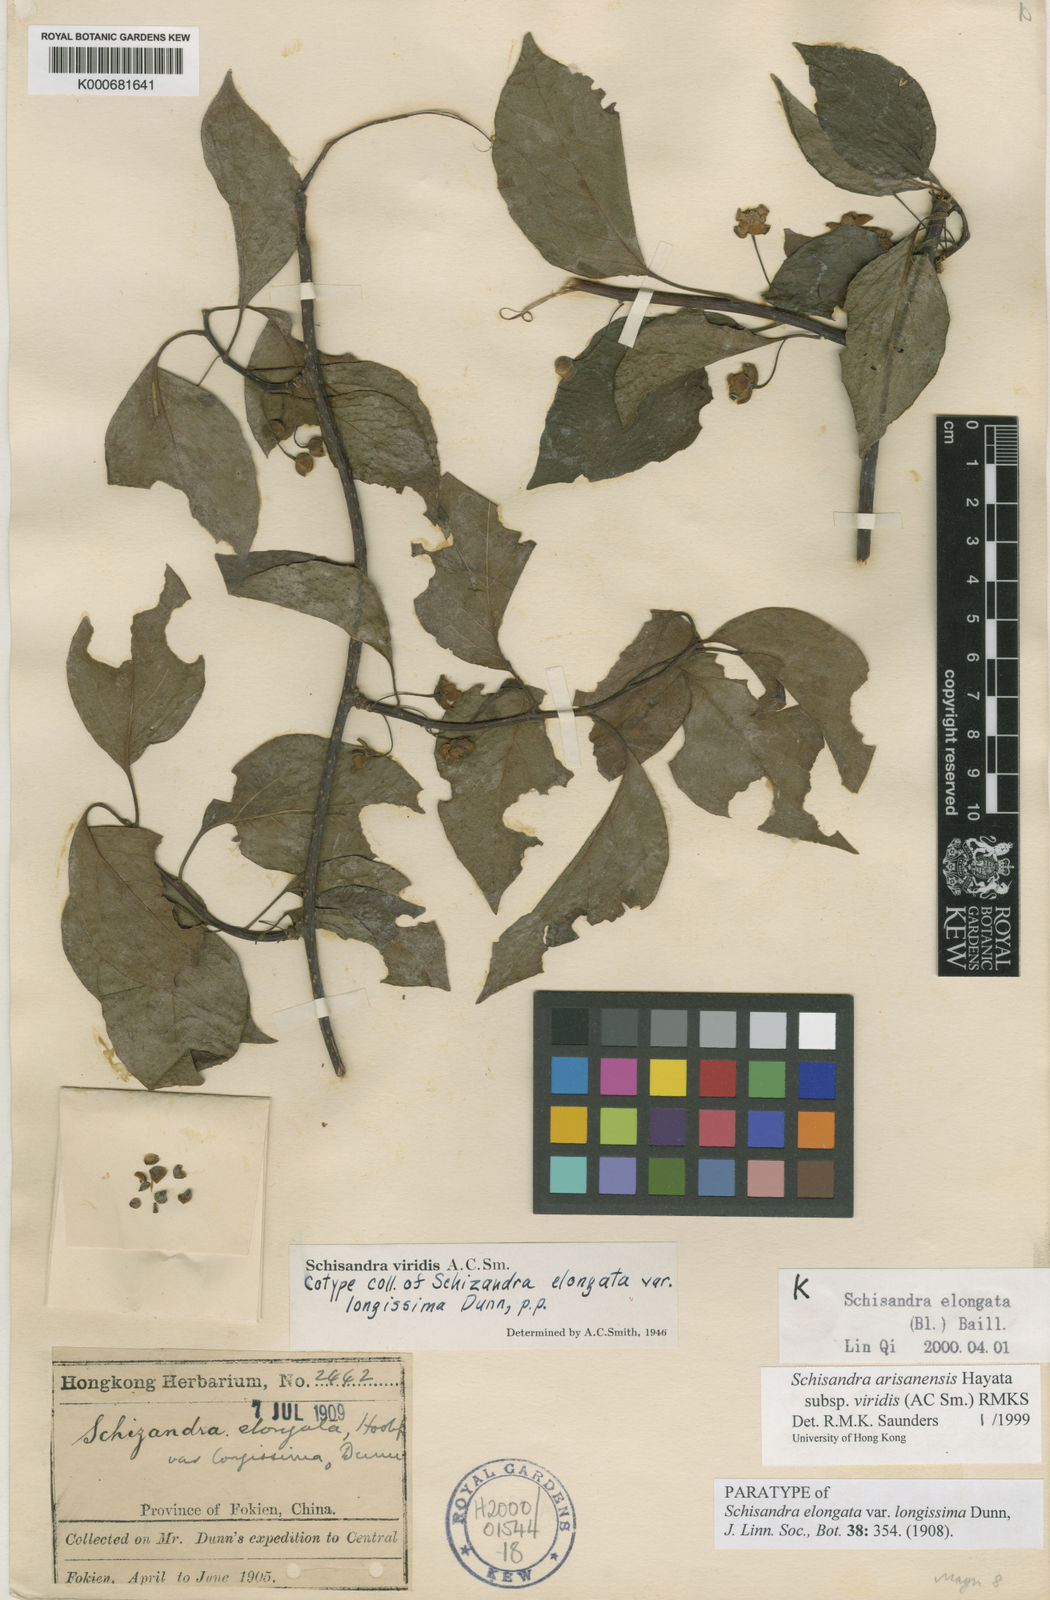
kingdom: Plantae
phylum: Tracheophyta
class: Magnoliopsida
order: Austrobaileyales
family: Schisandraceae
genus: Schisandra
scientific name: Schisandra arisanensis
